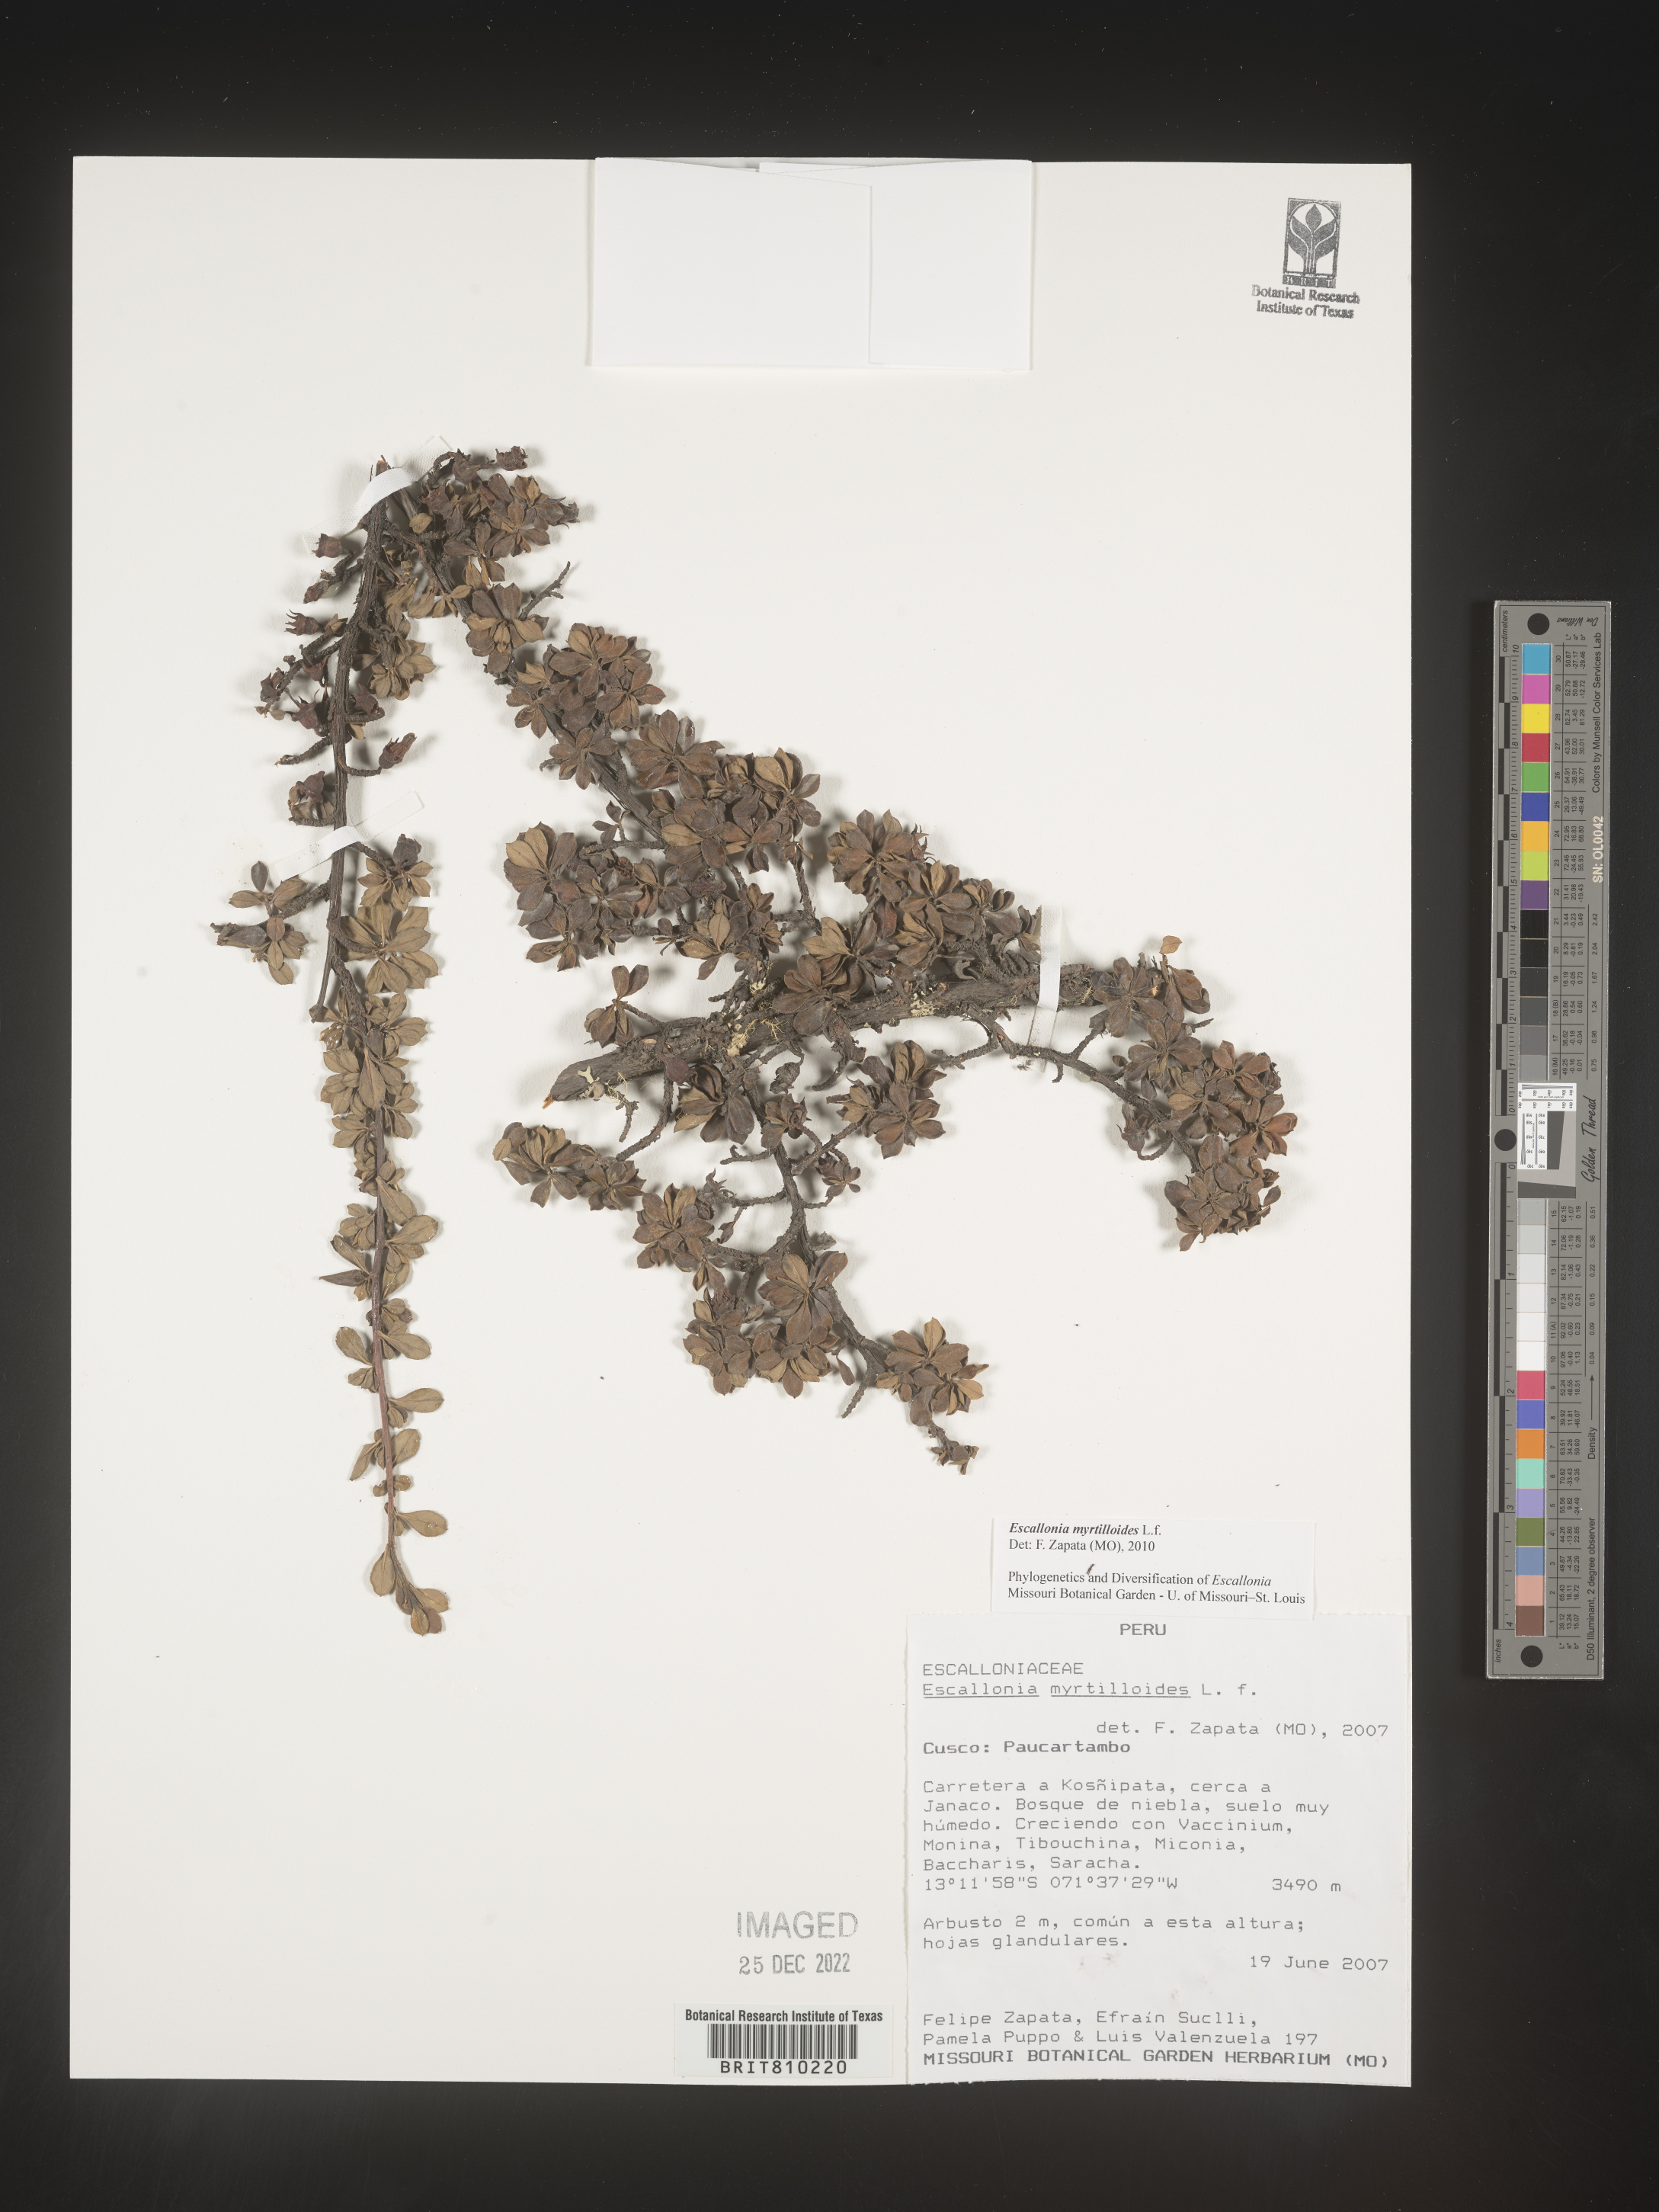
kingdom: Plantae
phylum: Tracheophyta
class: Magnoliopsida
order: Escalloniales
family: Escalloniaceae
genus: Escallonia
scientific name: Escallonia
